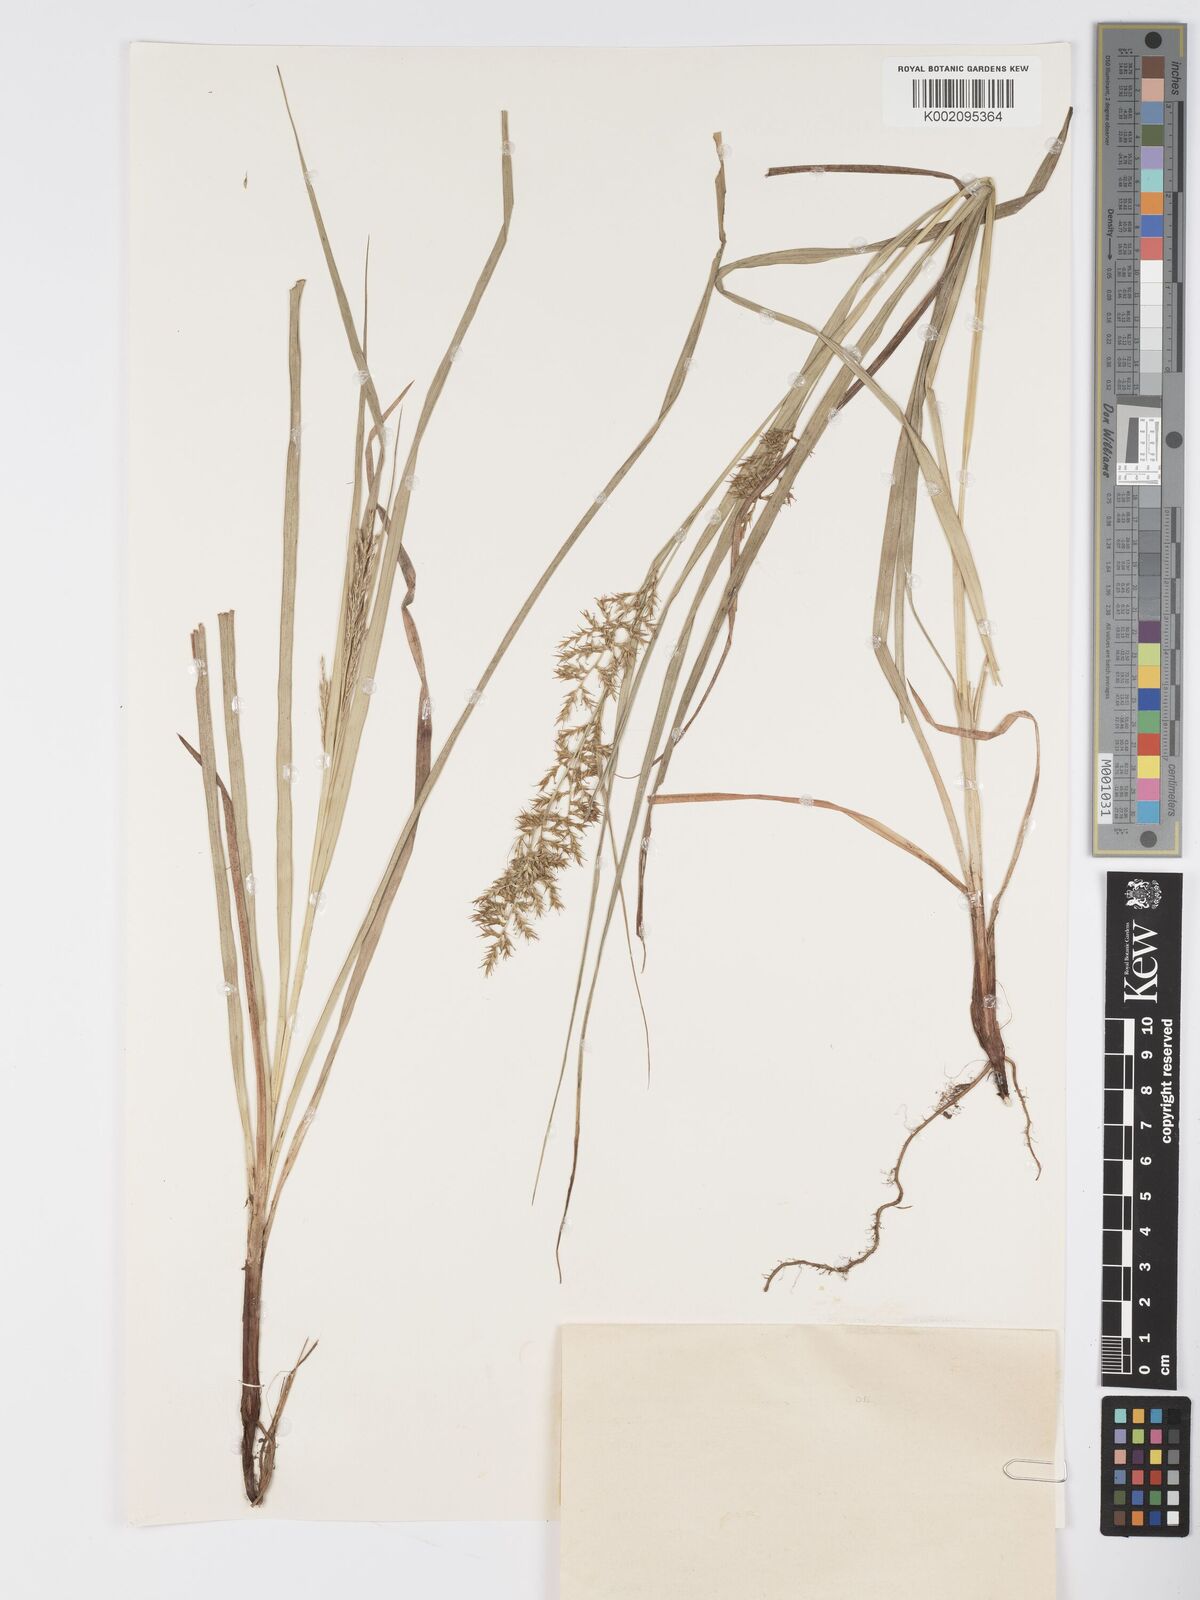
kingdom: Plantae
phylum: Tracheophyta
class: Liliopsida
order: Poales
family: Cyperaceae
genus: Carex
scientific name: Carex chlorosaccus
